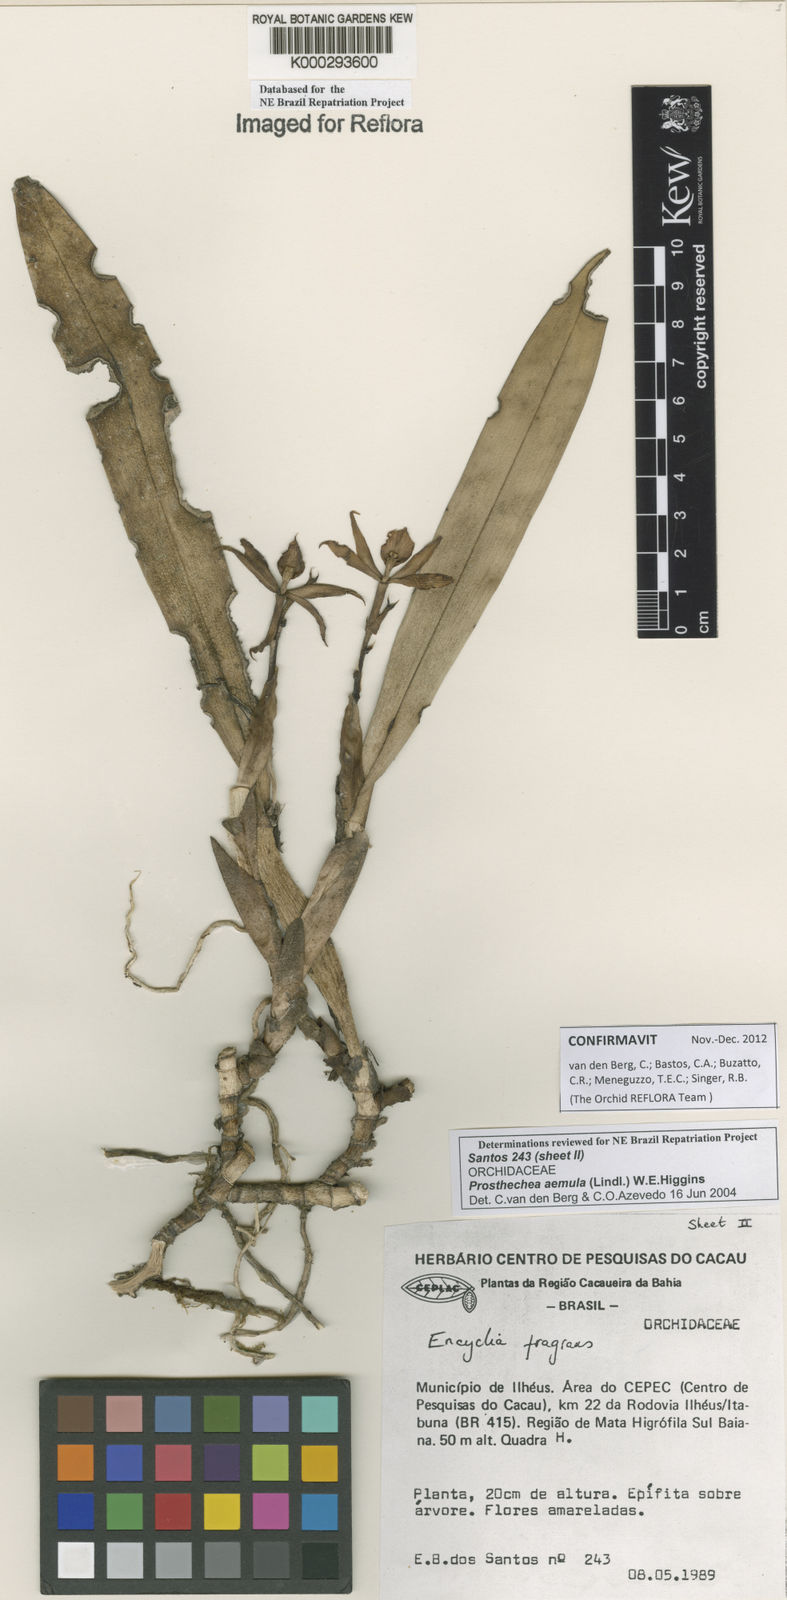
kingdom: Plantae
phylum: Tracheophyta
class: Liliopsida
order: Asparagales
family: Orchidaceae
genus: Prosthechea
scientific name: Prosthechea aemula
